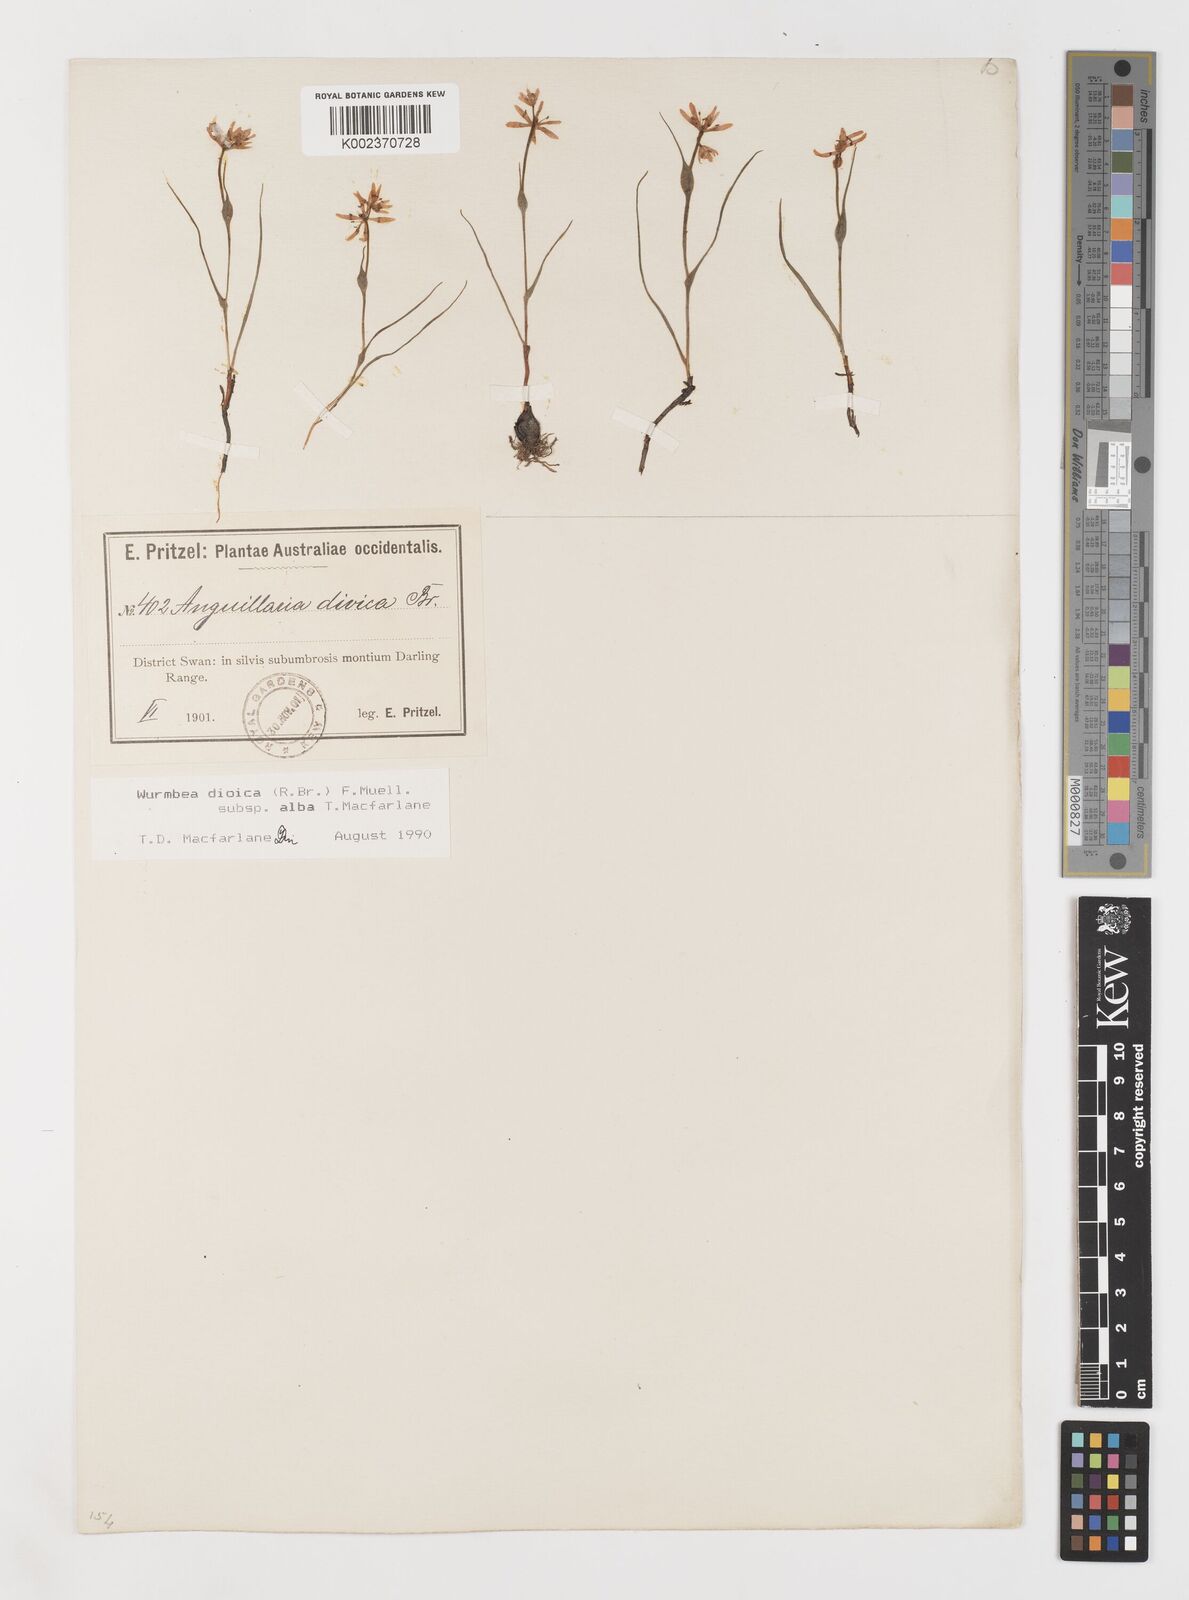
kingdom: Plantae
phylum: Tracheophyta
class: Liliopsida
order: Liliales
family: Colchicaceae
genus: Wurmbea
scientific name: Wurmbea dioica
